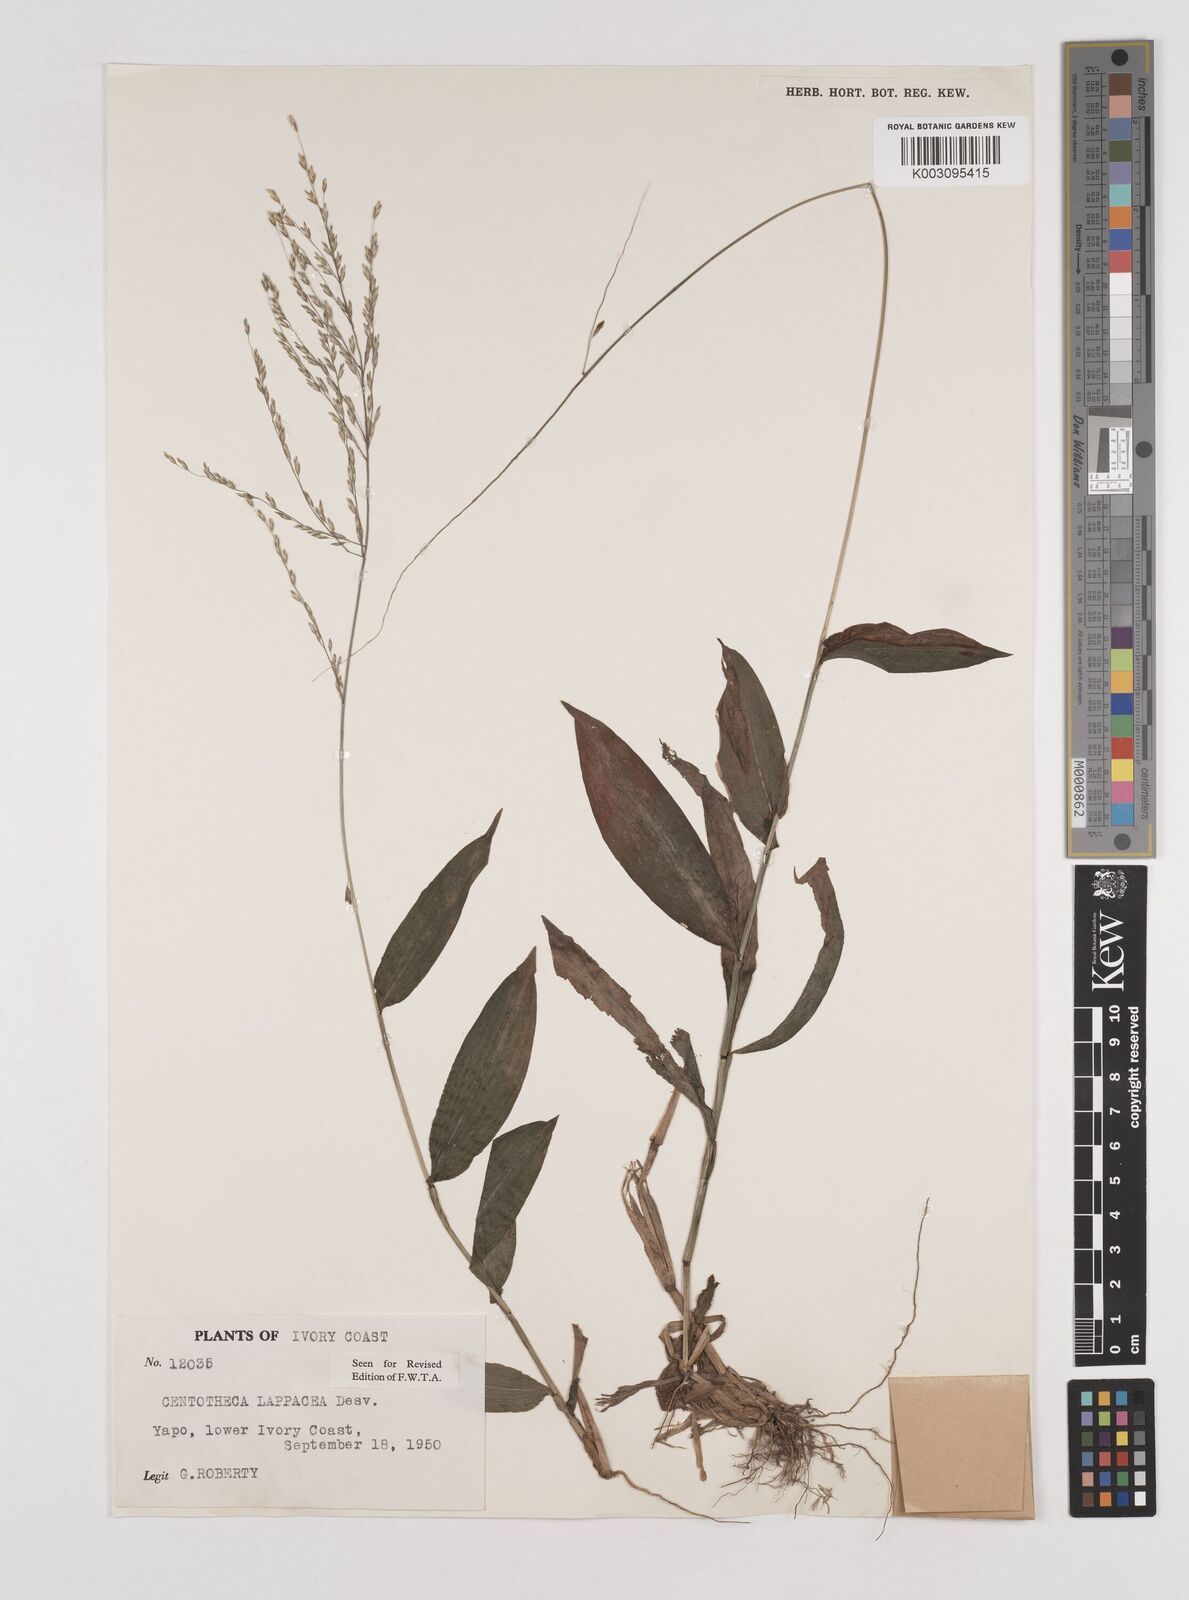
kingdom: Plantae
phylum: Tracheophyta
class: Liliopsida
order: Poales
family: Poaceae
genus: Centotheca
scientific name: Centotheca lappacea
